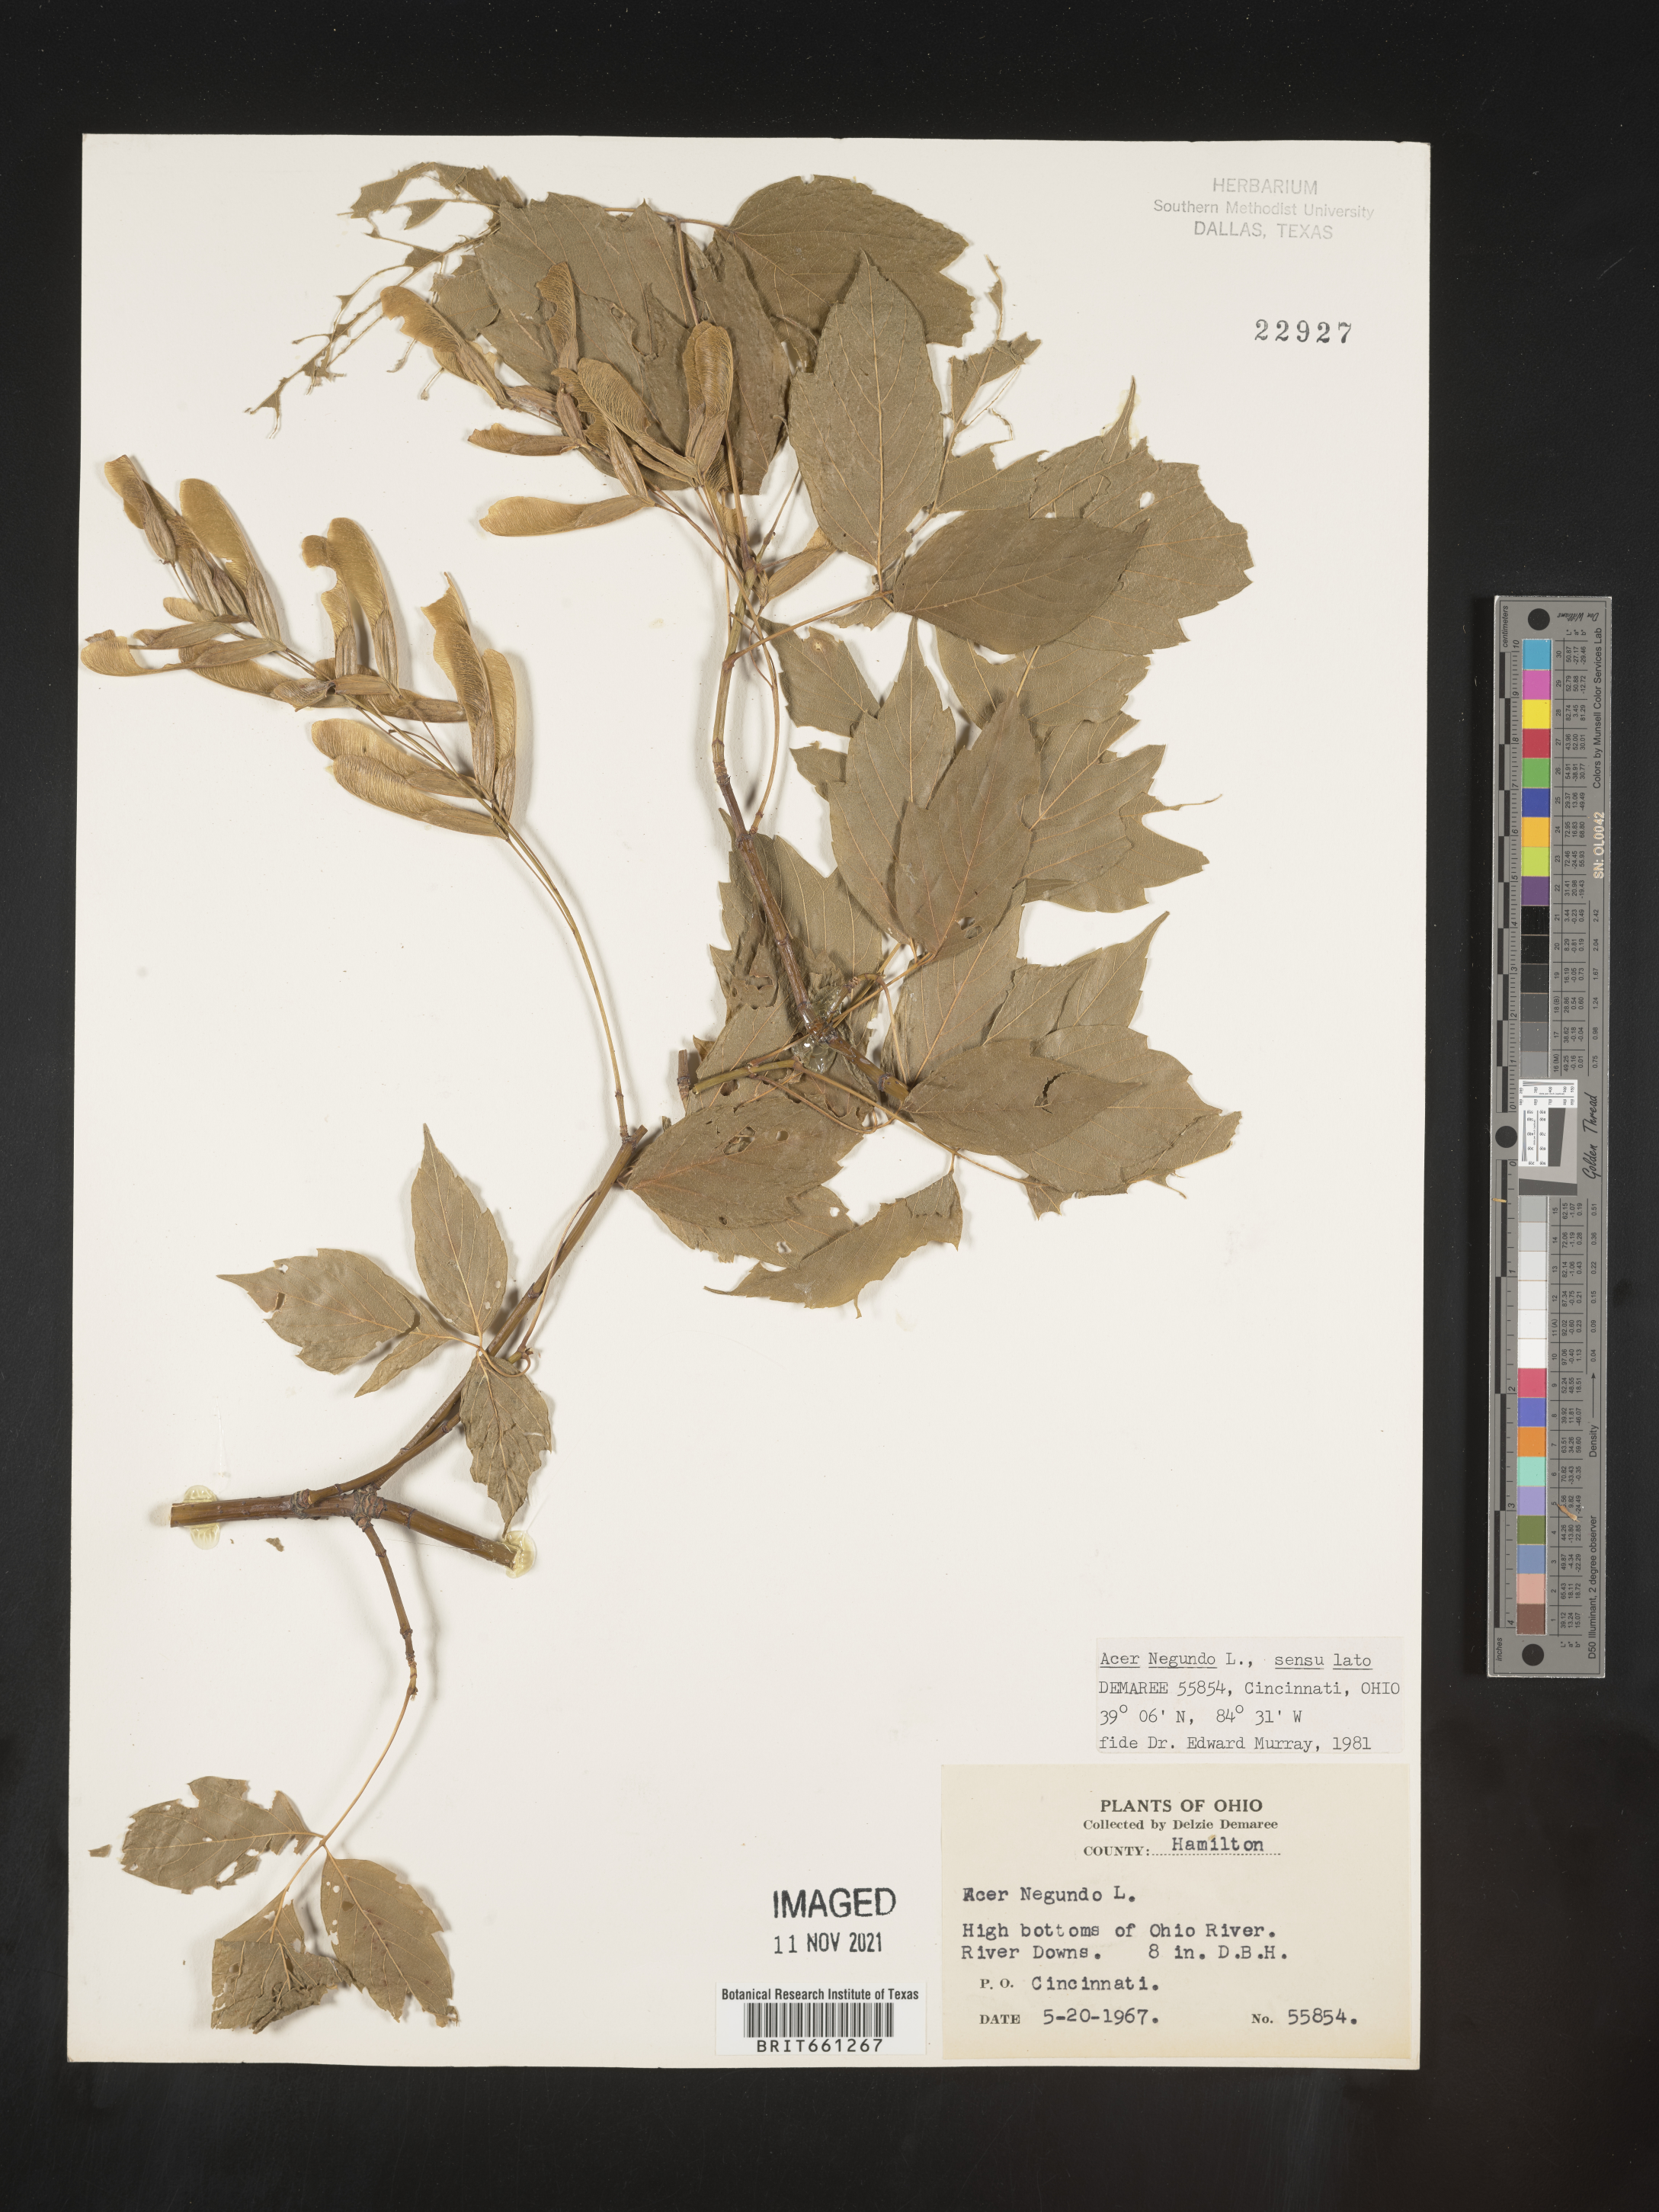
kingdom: Plantae
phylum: Tracheophyta
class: Magnoliopsida
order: Sapindales
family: Sapindaceae
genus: Acer
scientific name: Acer negundo
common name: Ashleaf maple
